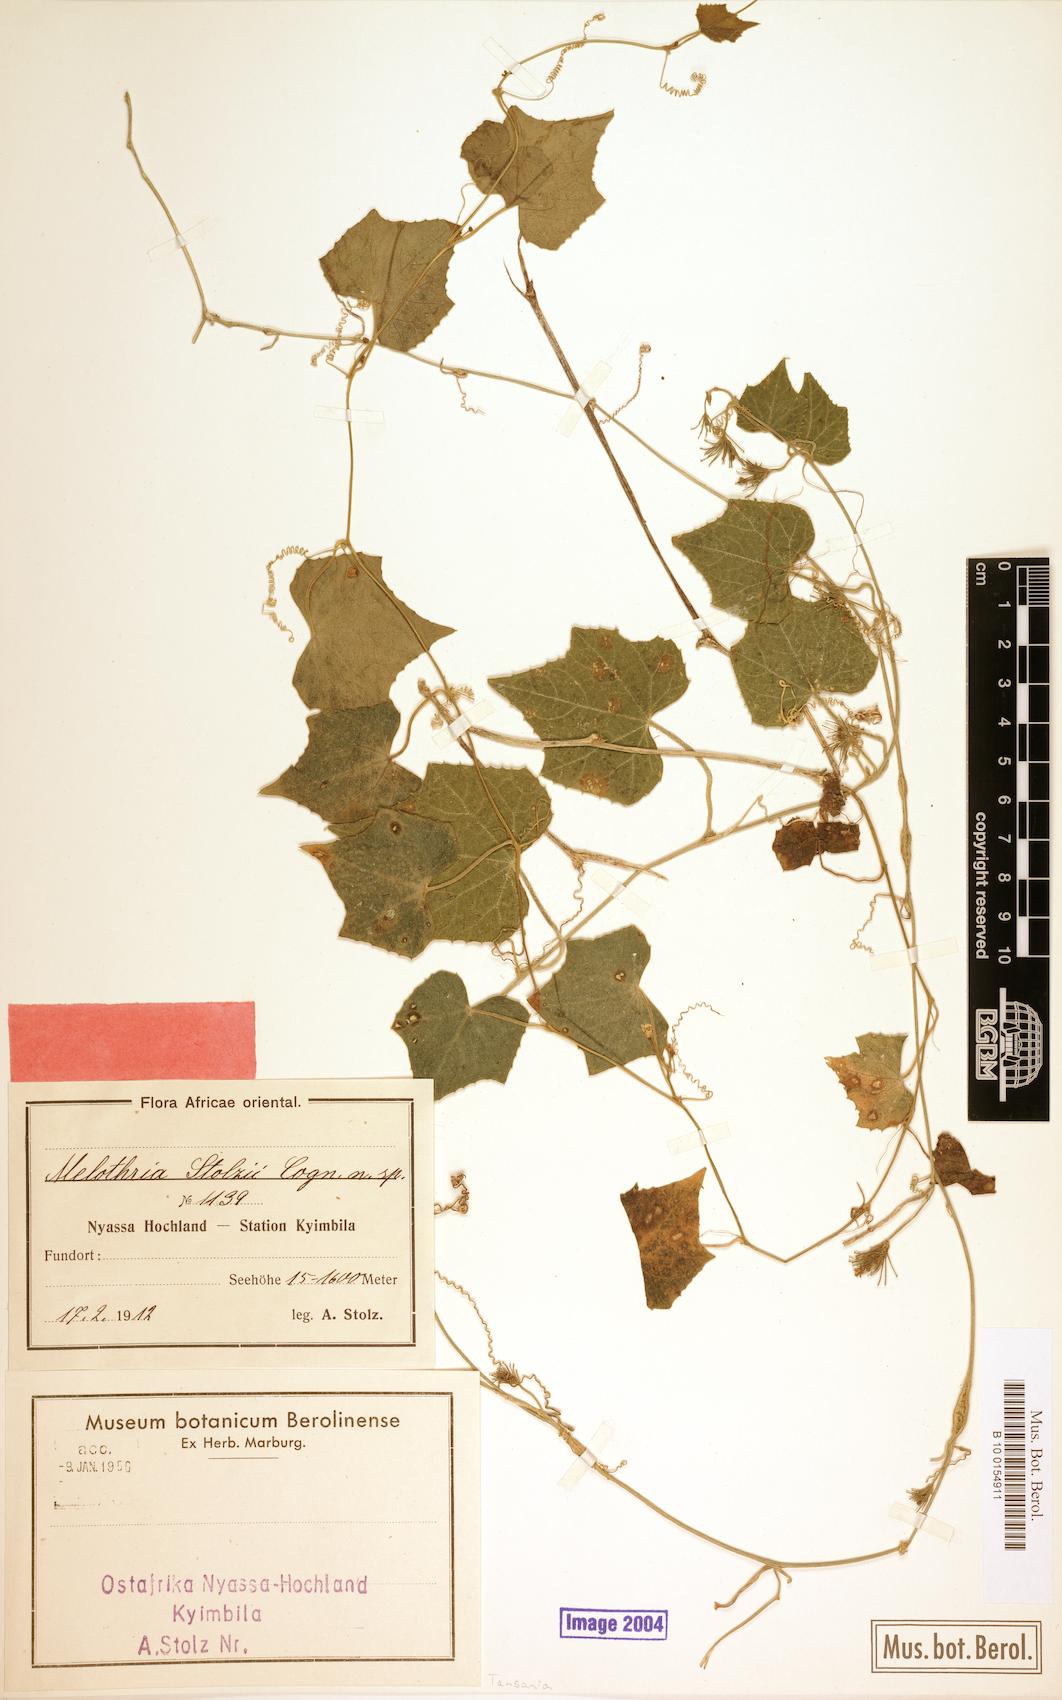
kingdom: Plantae
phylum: Tracheophyta
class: Magnoliopsida
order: Cucurbitales
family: Cucurbitaceae
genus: Zehneria
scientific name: Zehneria minutiflora
